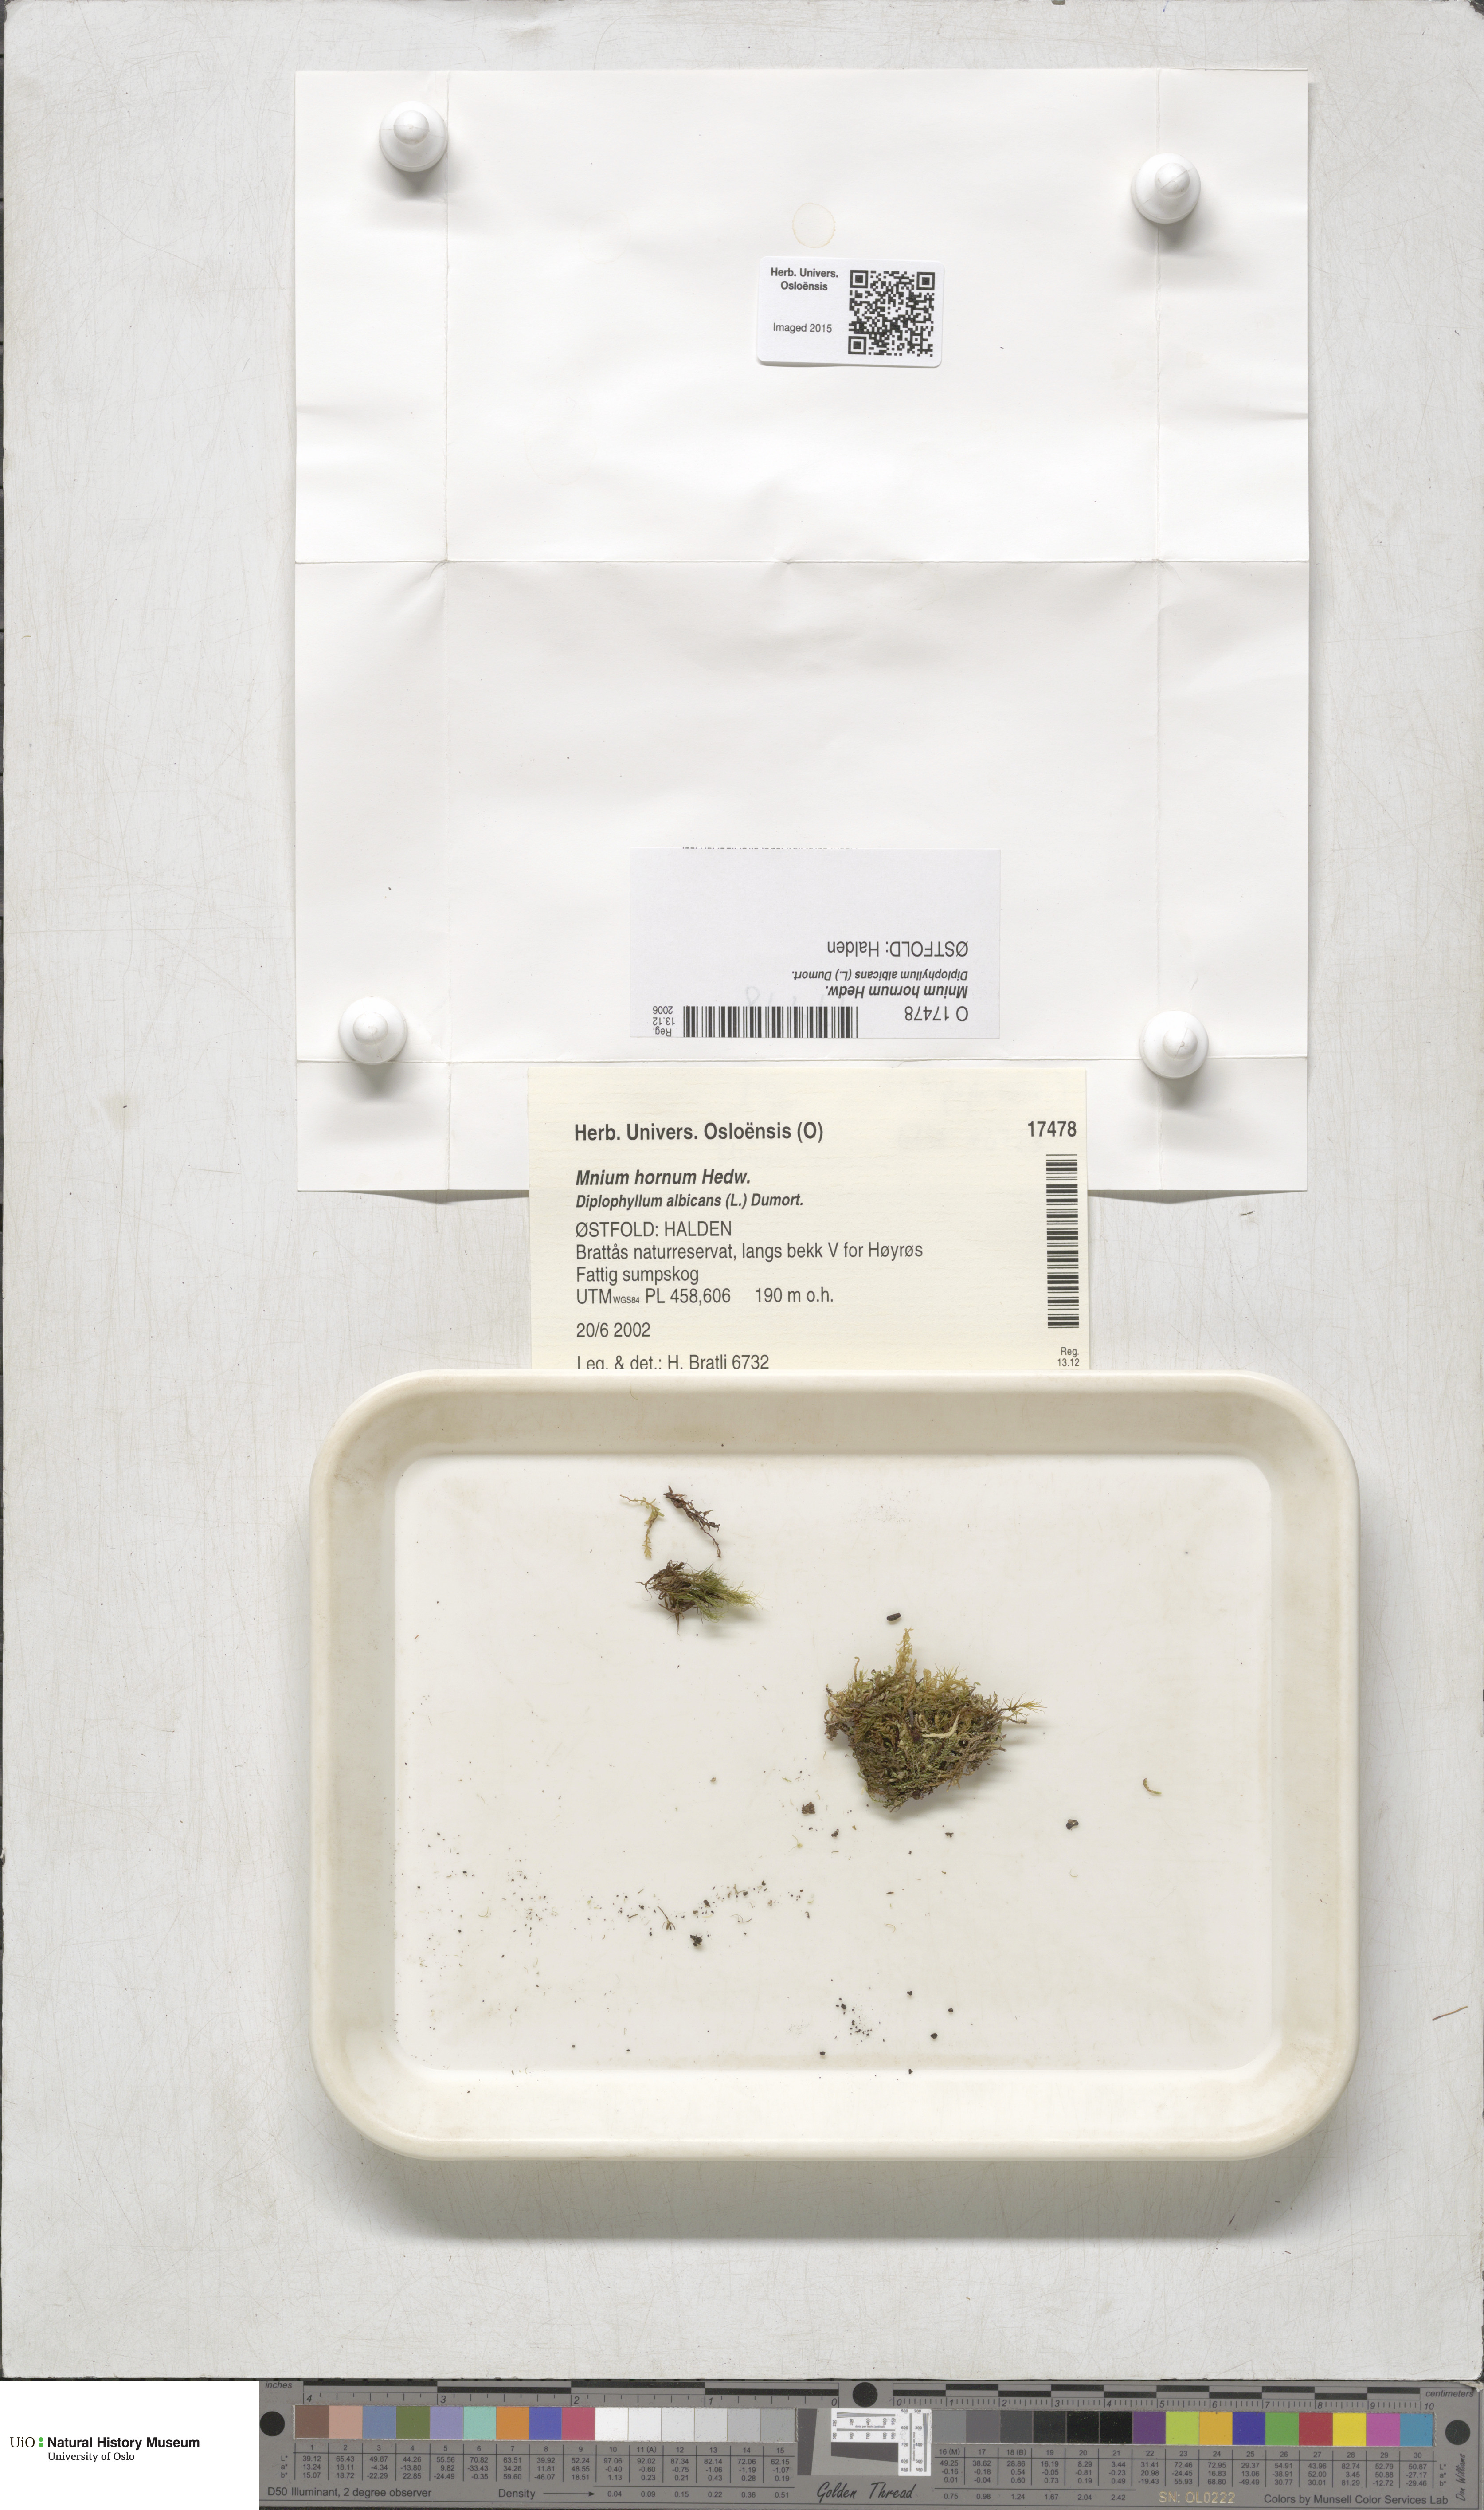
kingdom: Plantae
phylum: Bryophyta
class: Bryopsida
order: Bryales
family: Mniaceae
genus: Mnium
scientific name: Mnium hornum
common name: Swan's-neck leafy moss
